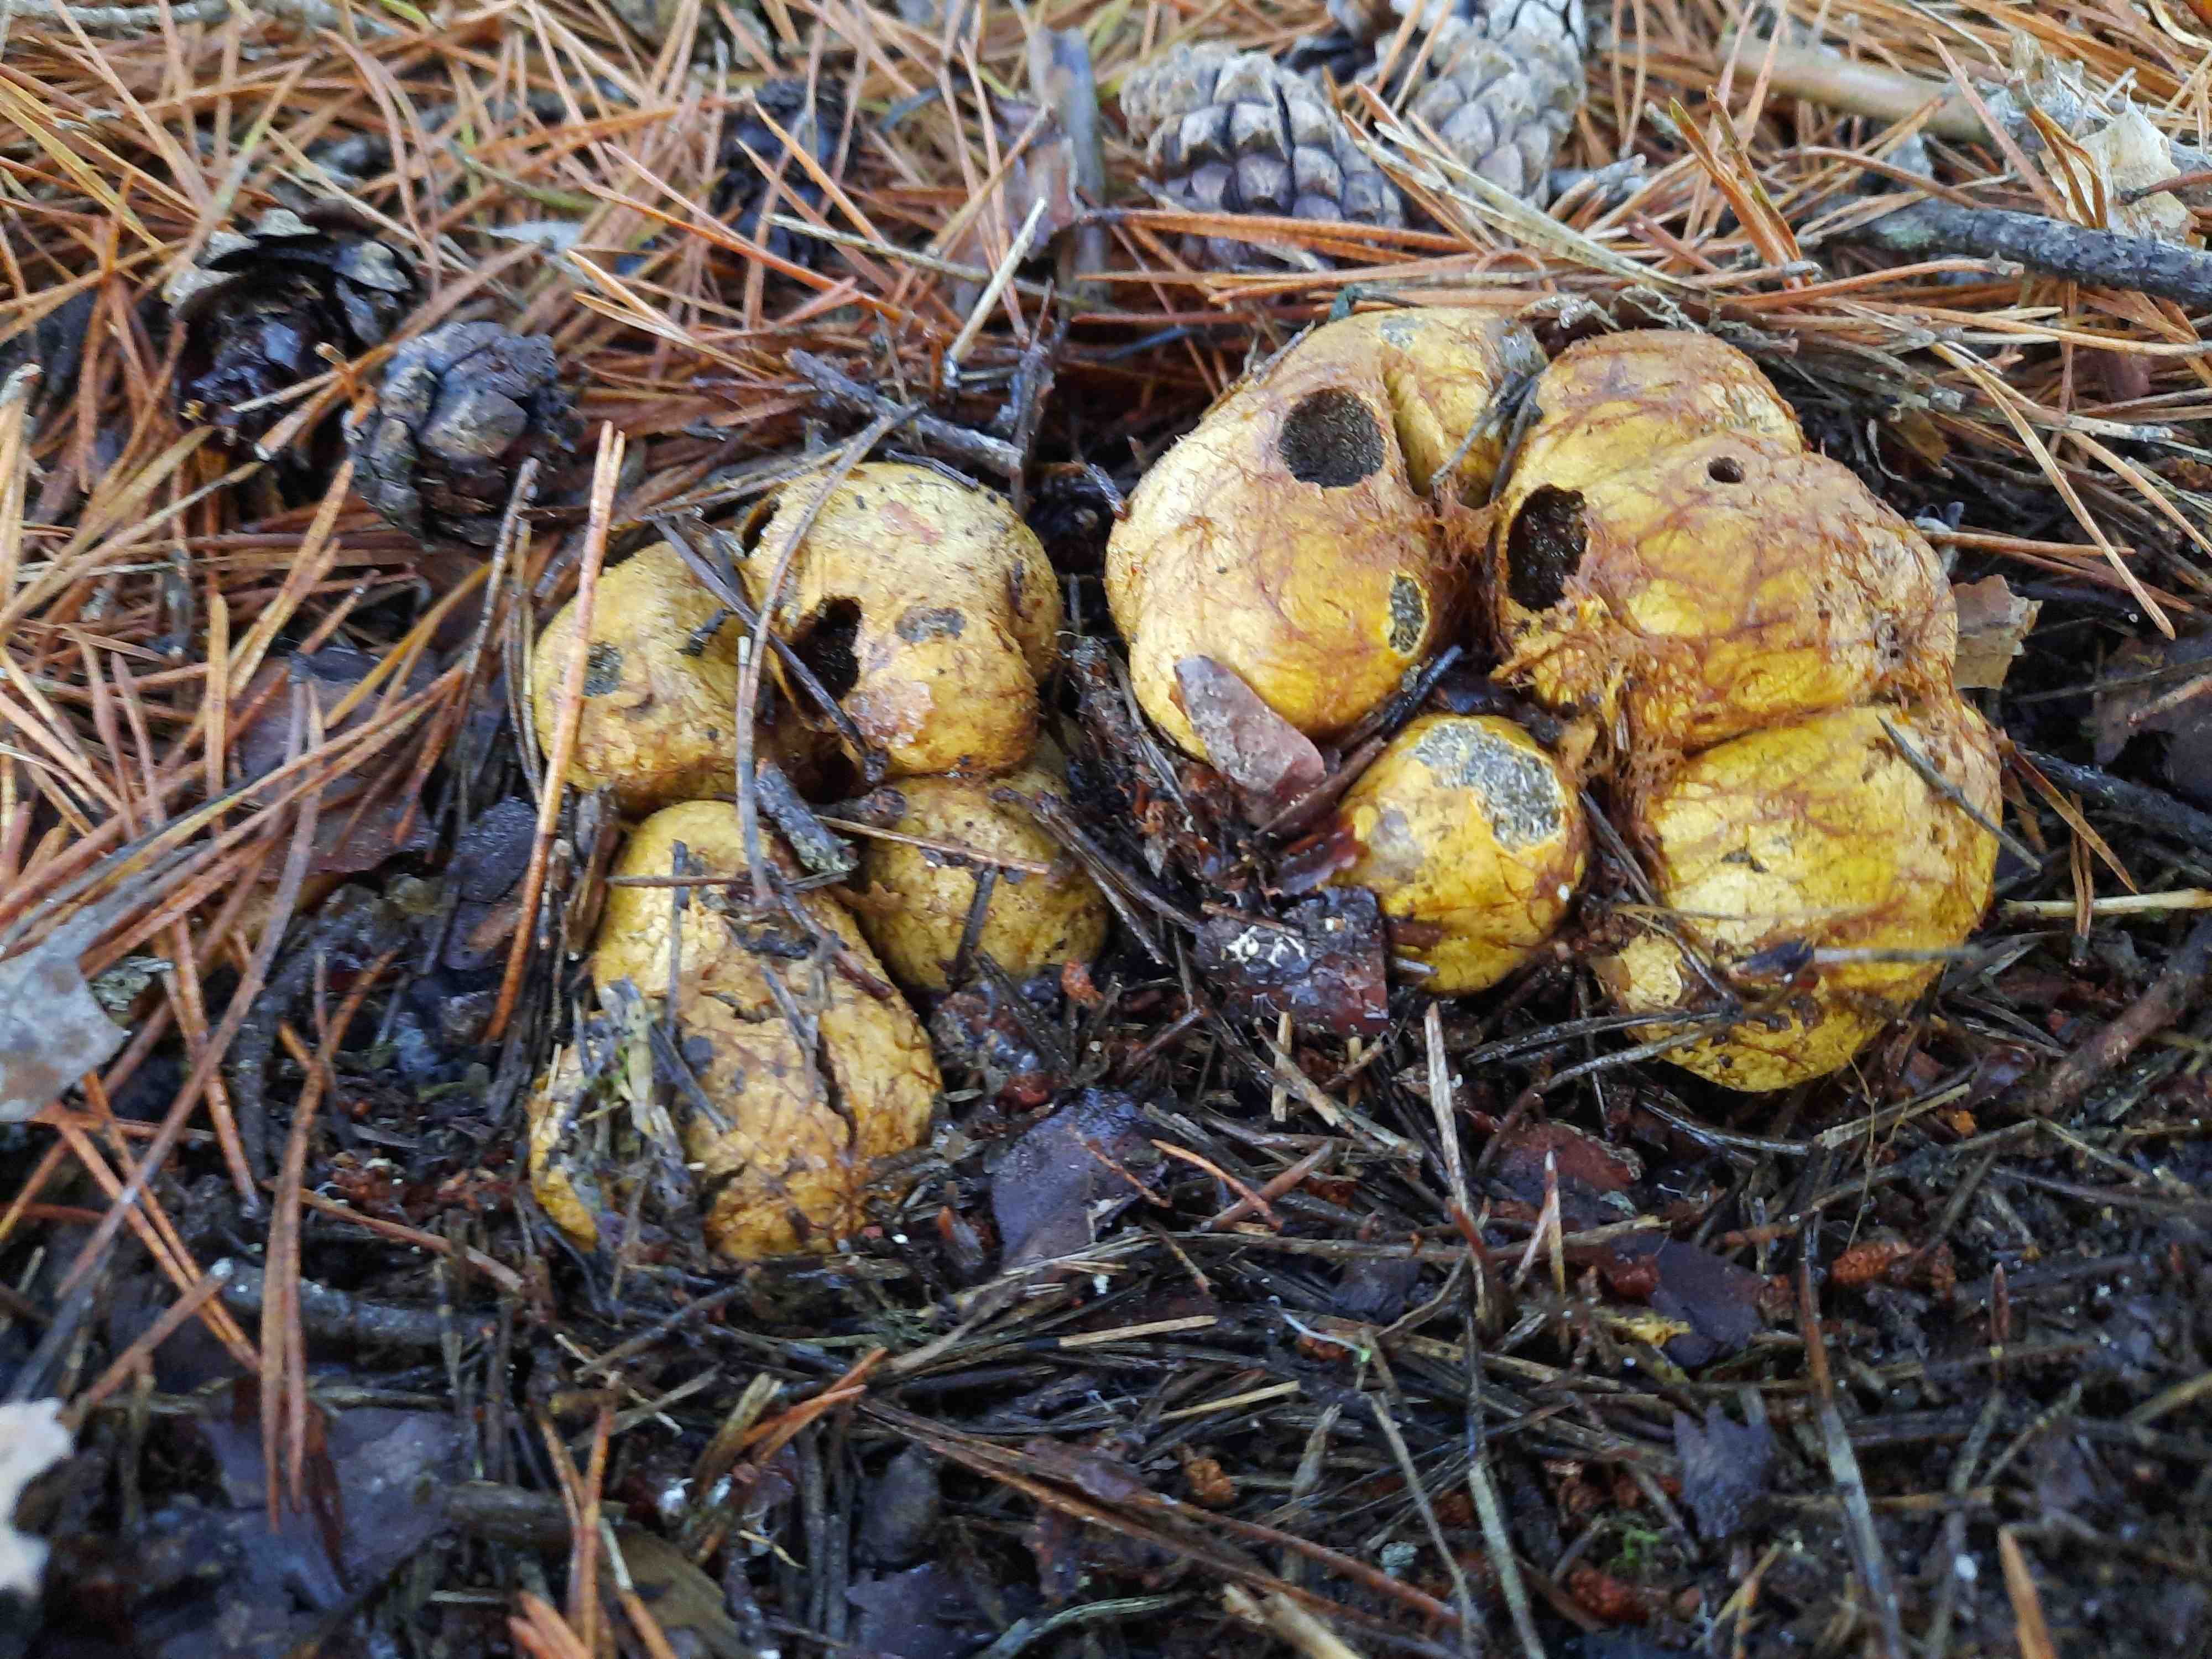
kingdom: Fungi
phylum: Basidiomycota
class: Agaricomycetes
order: Boletales
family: Rhizopogonaceae
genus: Rhizopogon
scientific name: Rhizopogon obtextus
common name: gul skægtrøffel
